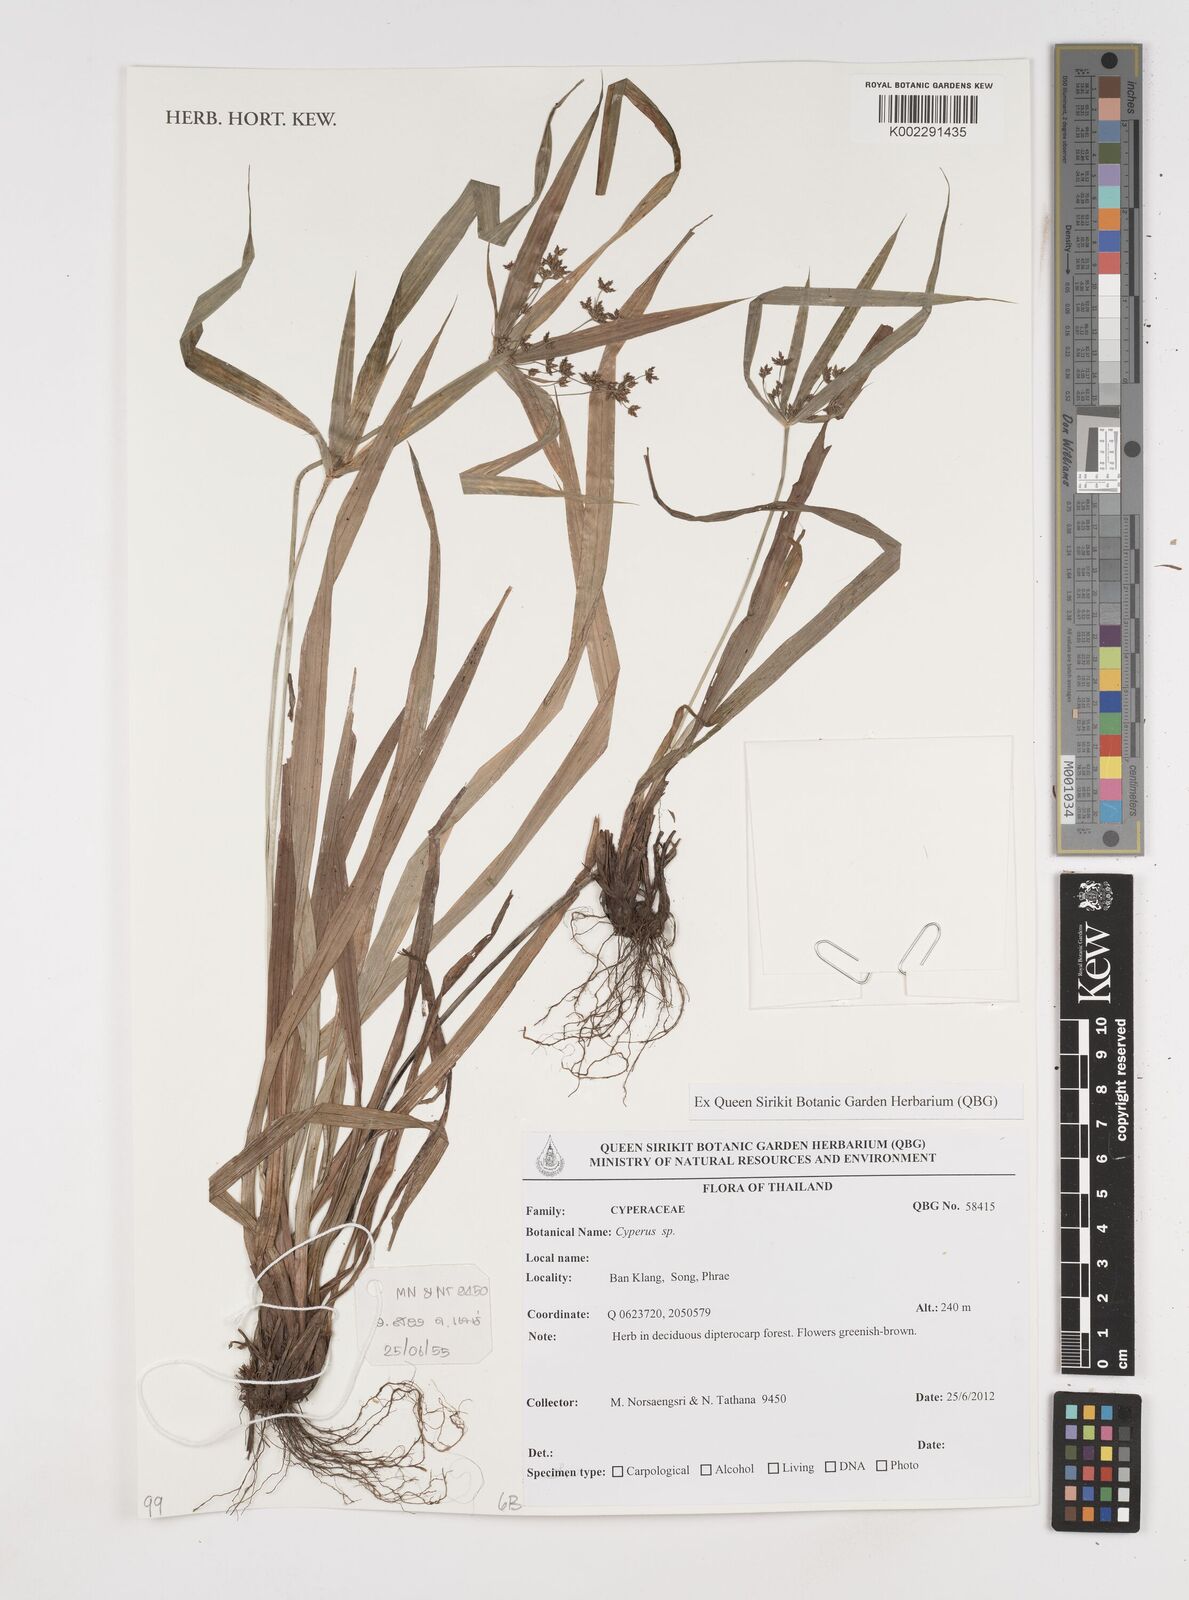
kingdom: Plantae
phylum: Tracheophyta
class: Liliopsida
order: Poales
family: Cyperaceae
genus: Cyperus
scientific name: Cyperus
